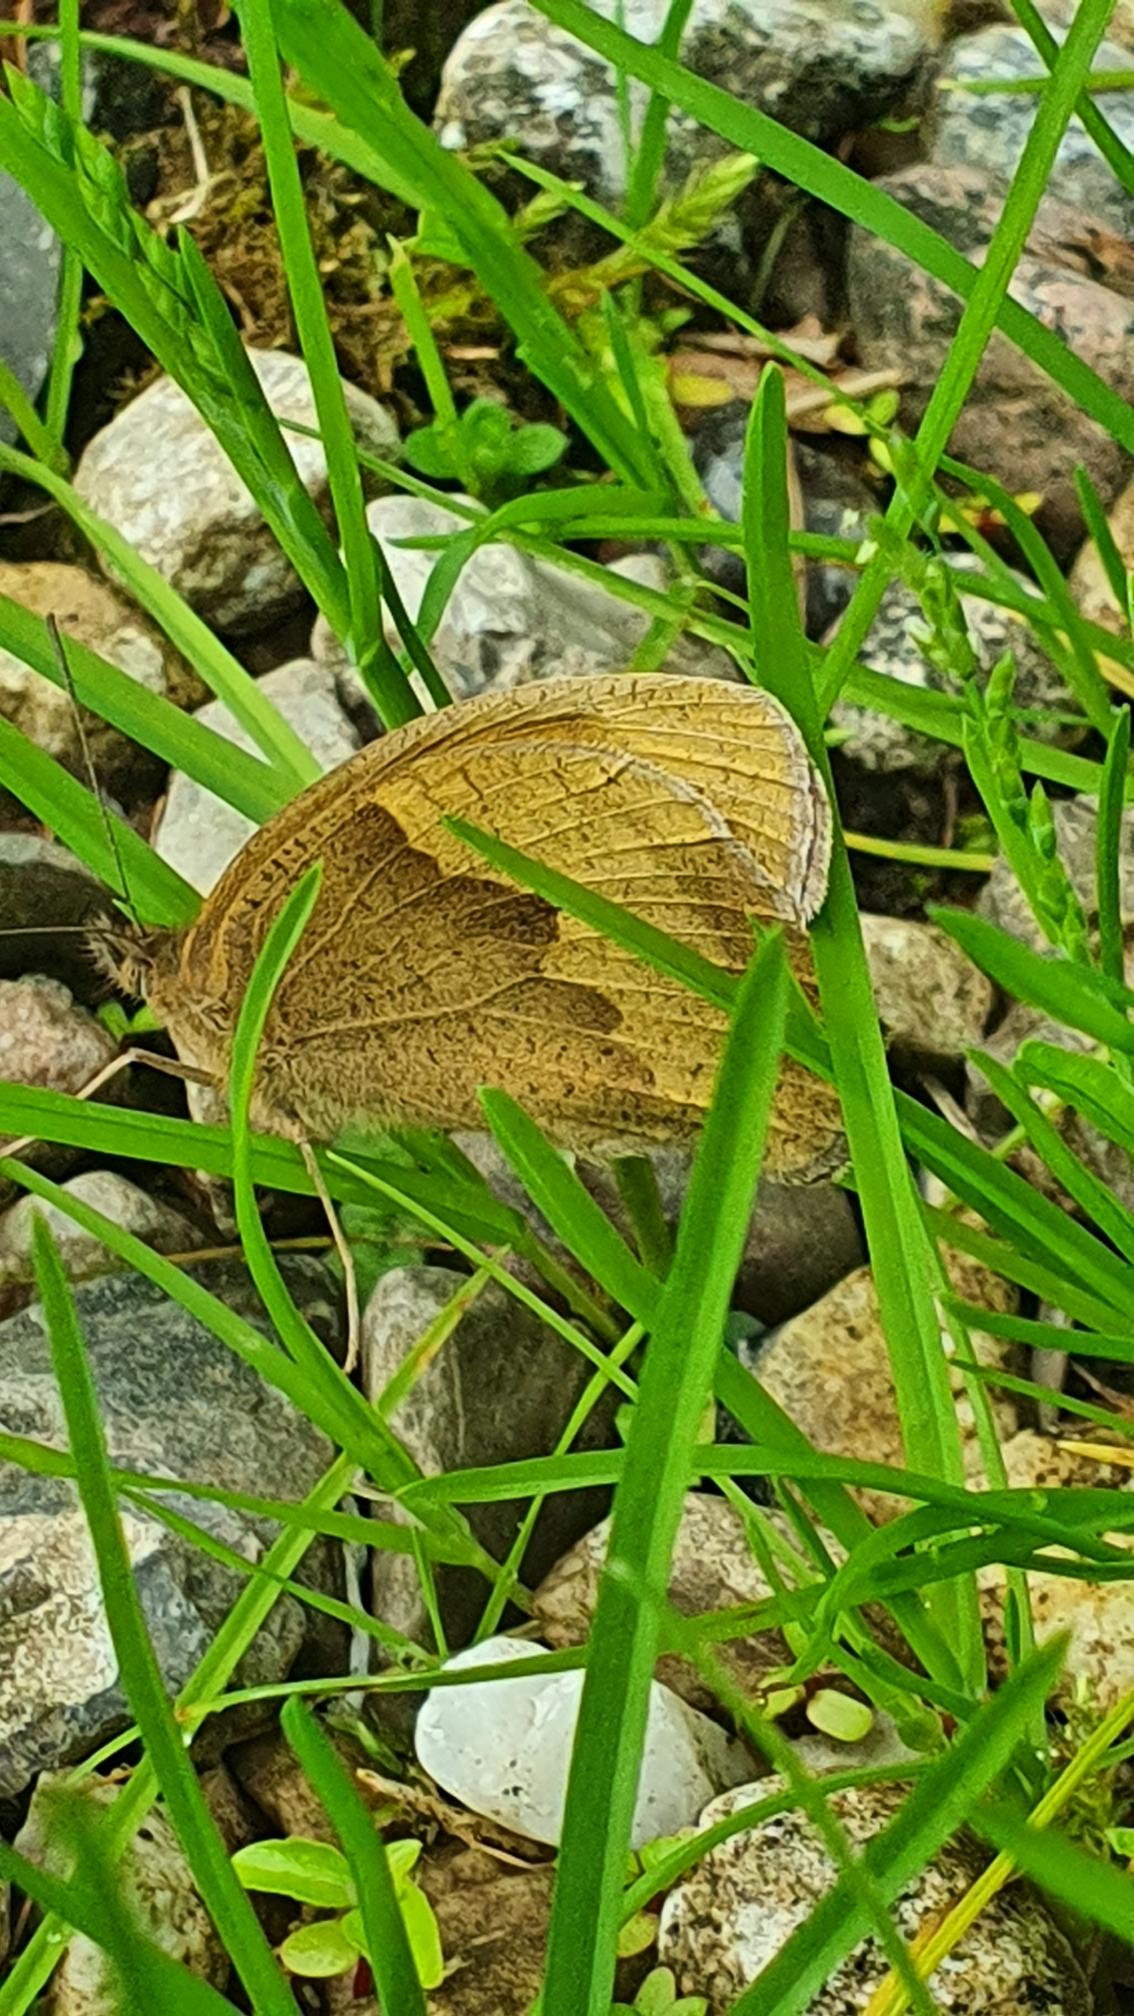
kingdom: Animalia
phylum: Arthropoda
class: Insecta
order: Lepidoptera
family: Nymphalidae
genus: Maniola
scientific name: Maniola jurtina
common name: Græsrandøje
